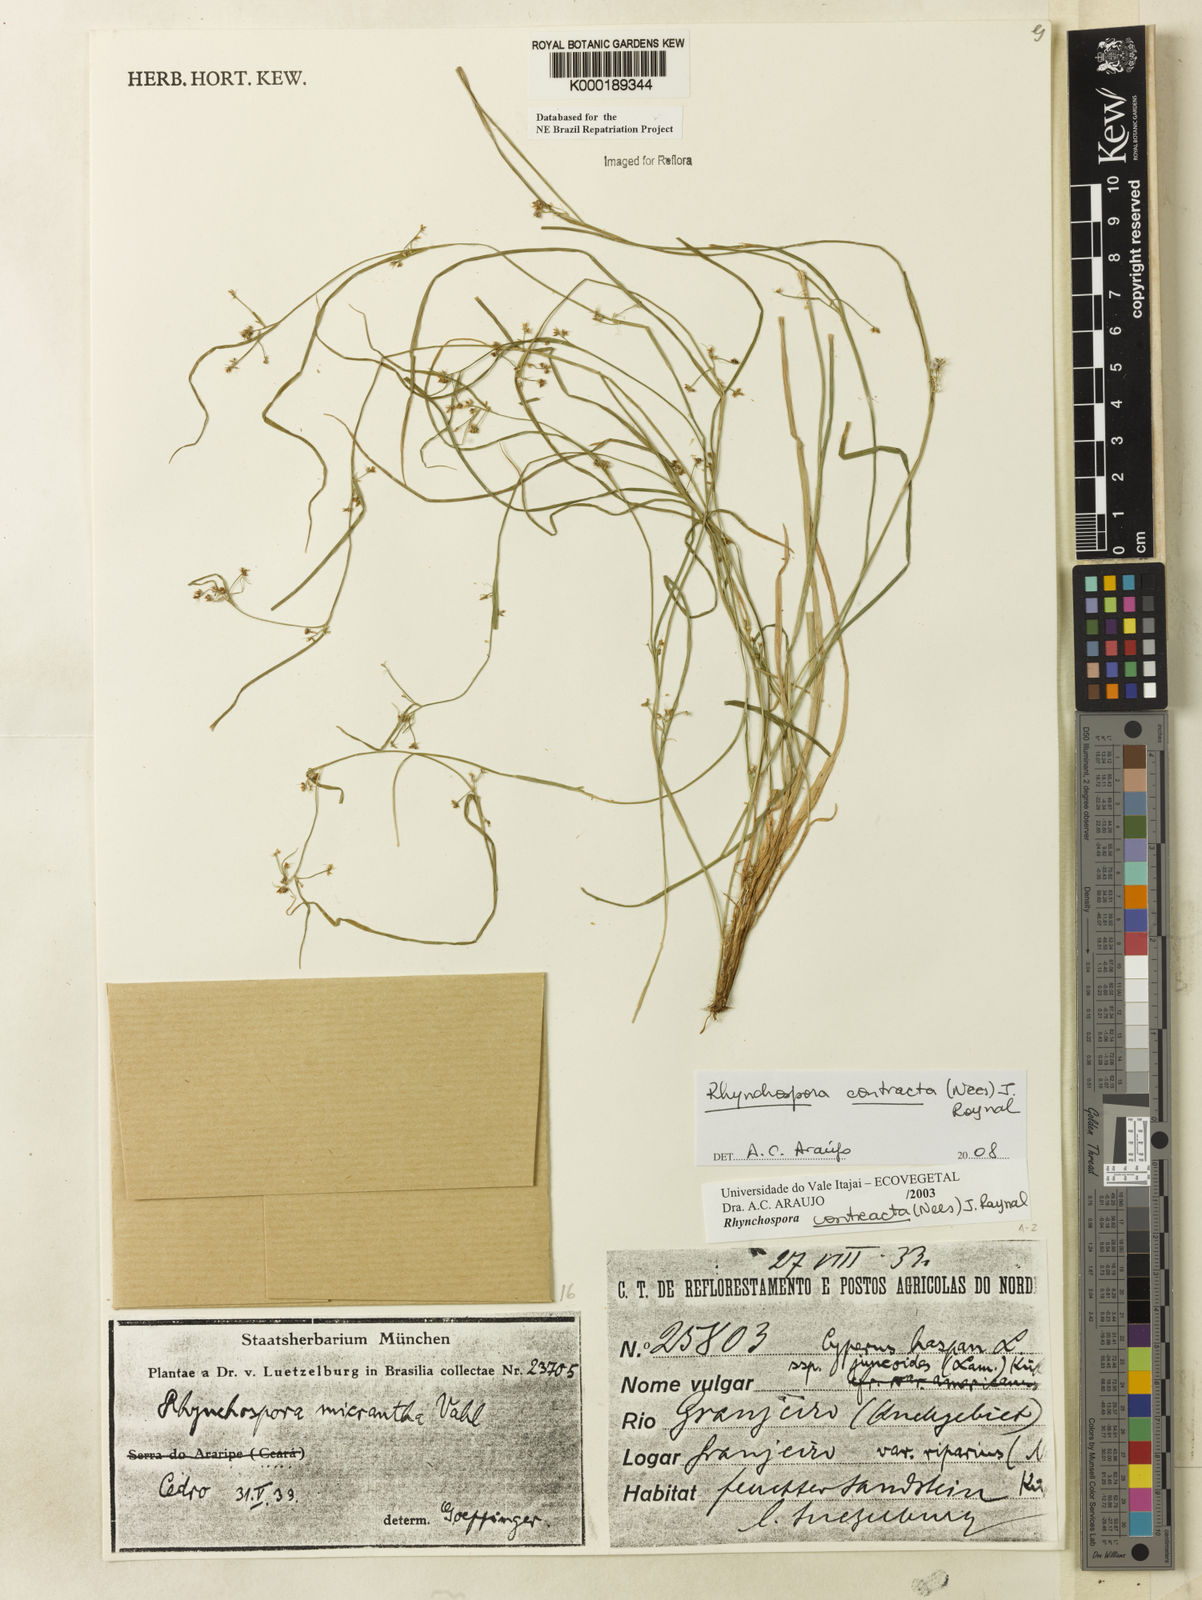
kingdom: Plantae
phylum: Tracheophyta
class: Liliopsida
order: Poales
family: Cyperaceae
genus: Rhynchospora
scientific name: Rhynchospora contracta
